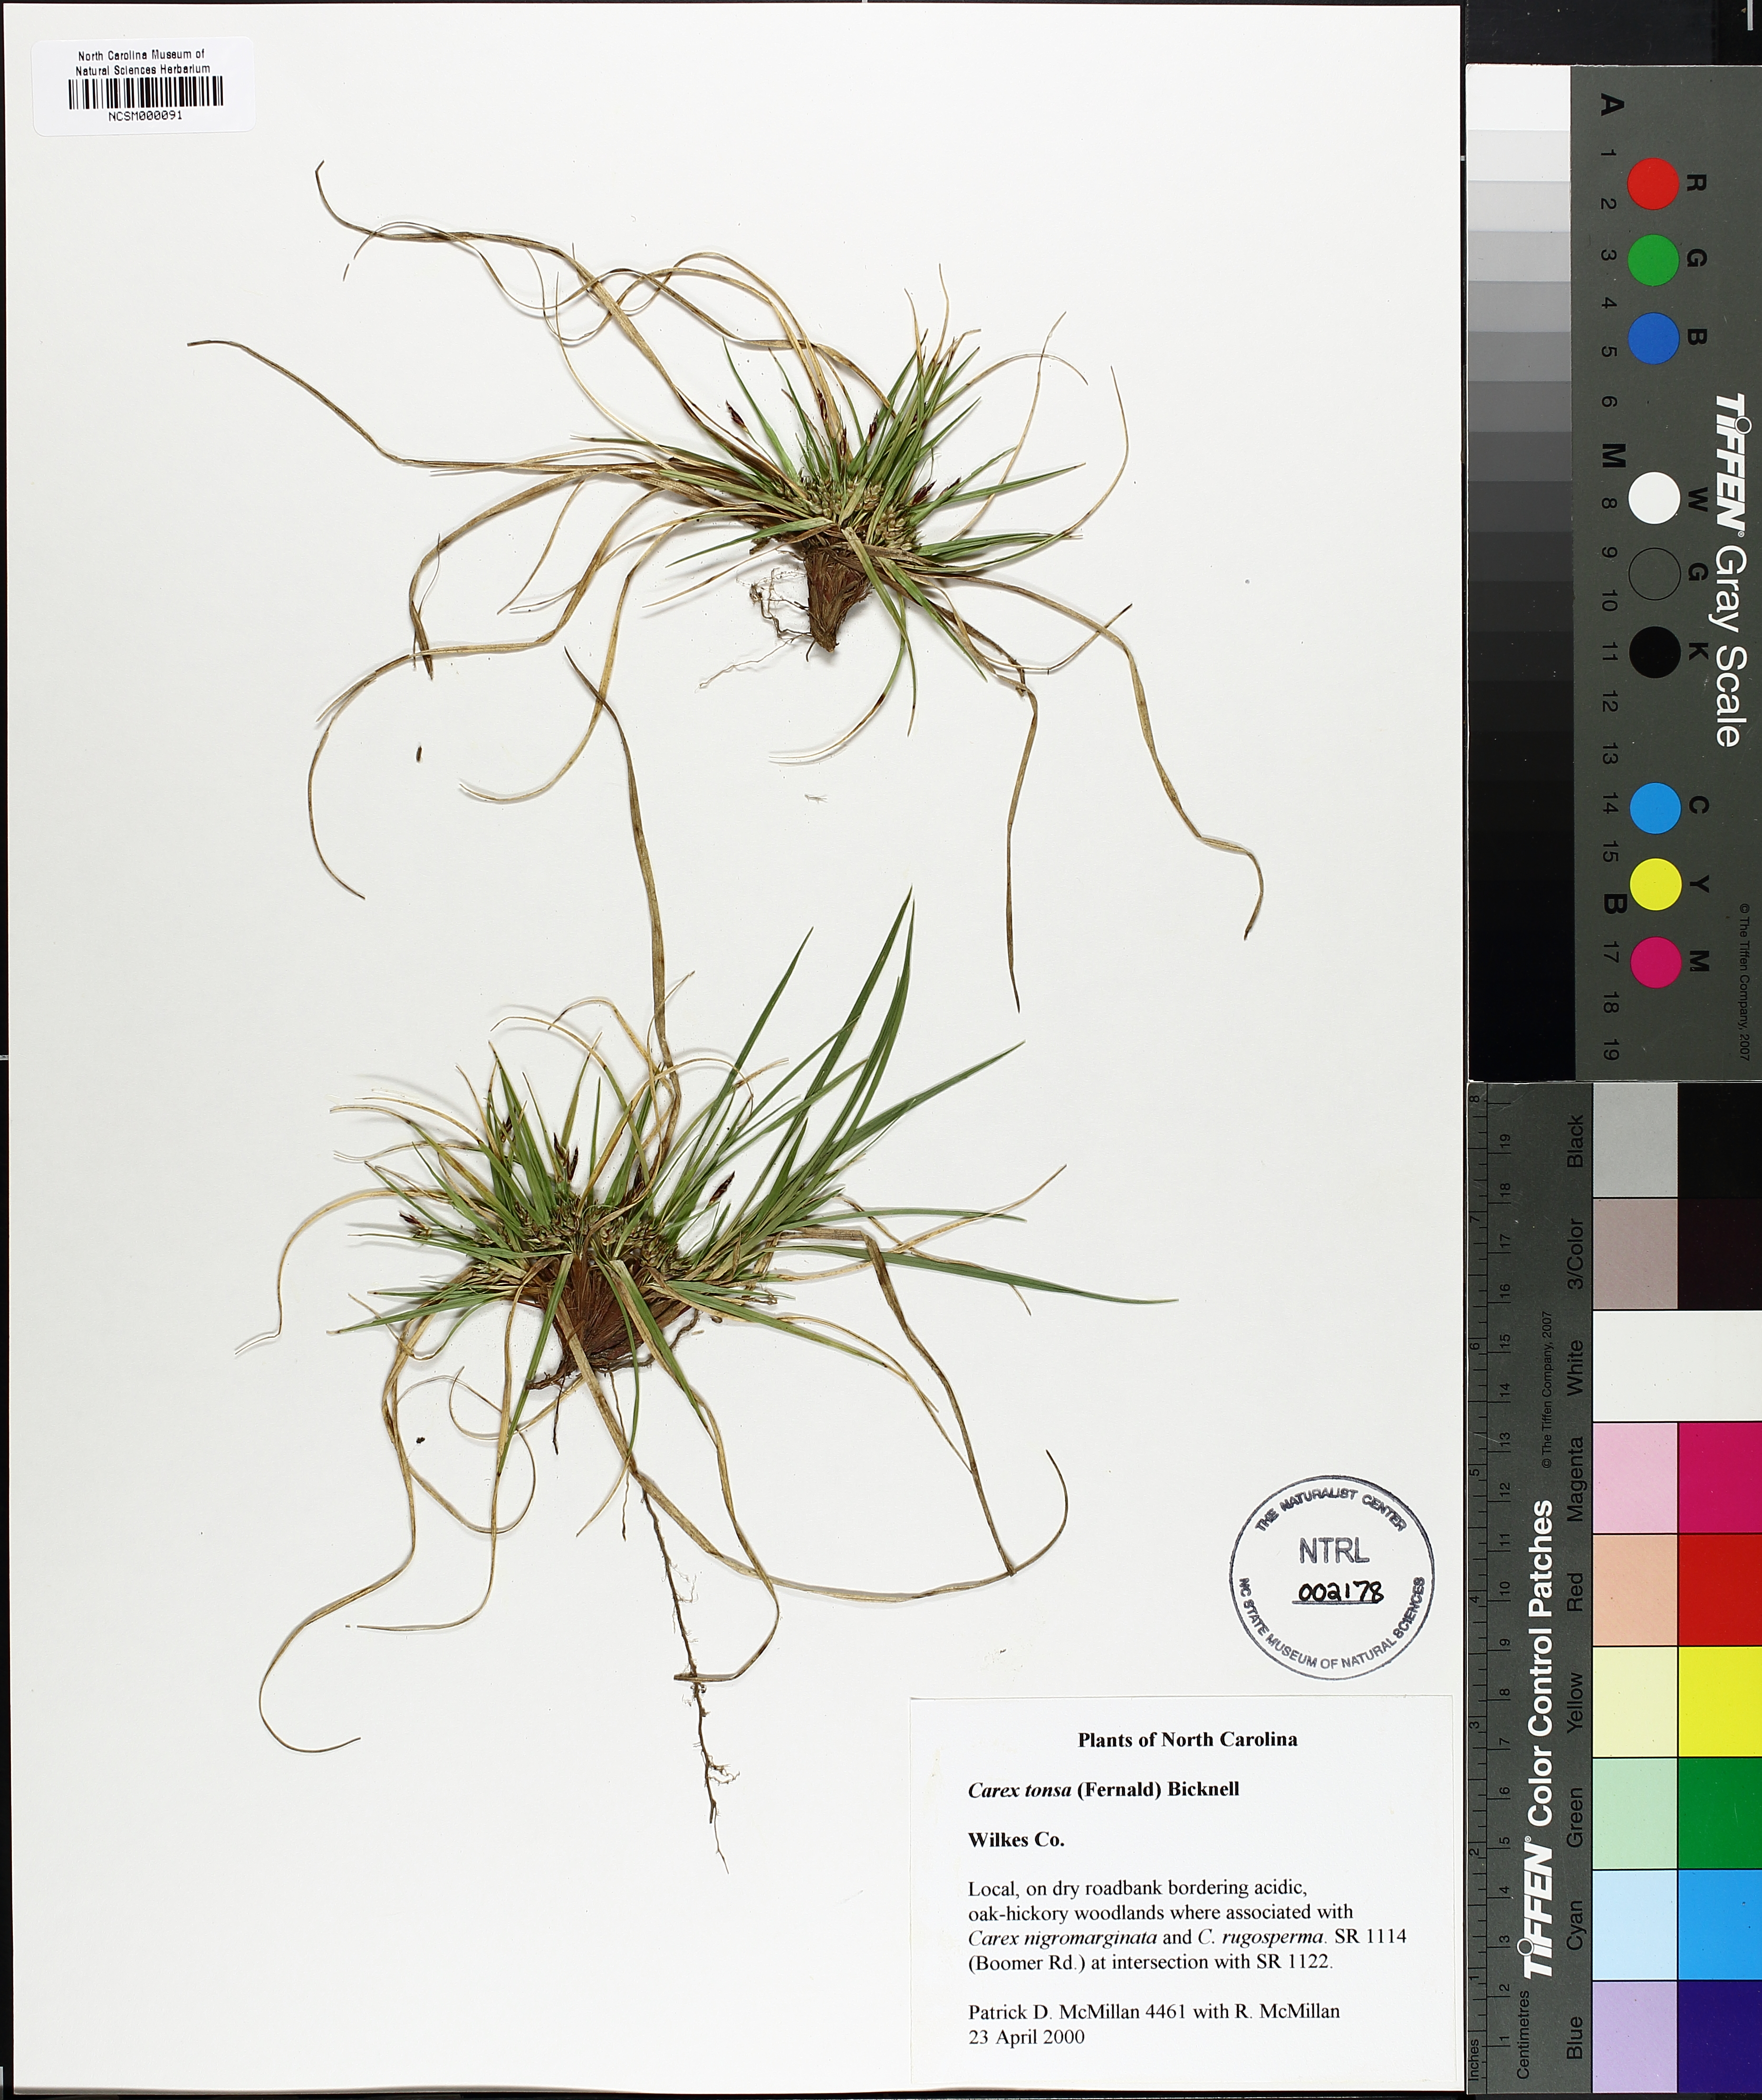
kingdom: Plantae
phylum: Tracheophyta
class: Liliopsida
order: Poales
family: Cyperaceae
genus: Carex
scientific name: Carex tonsa
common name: Bald sedge
